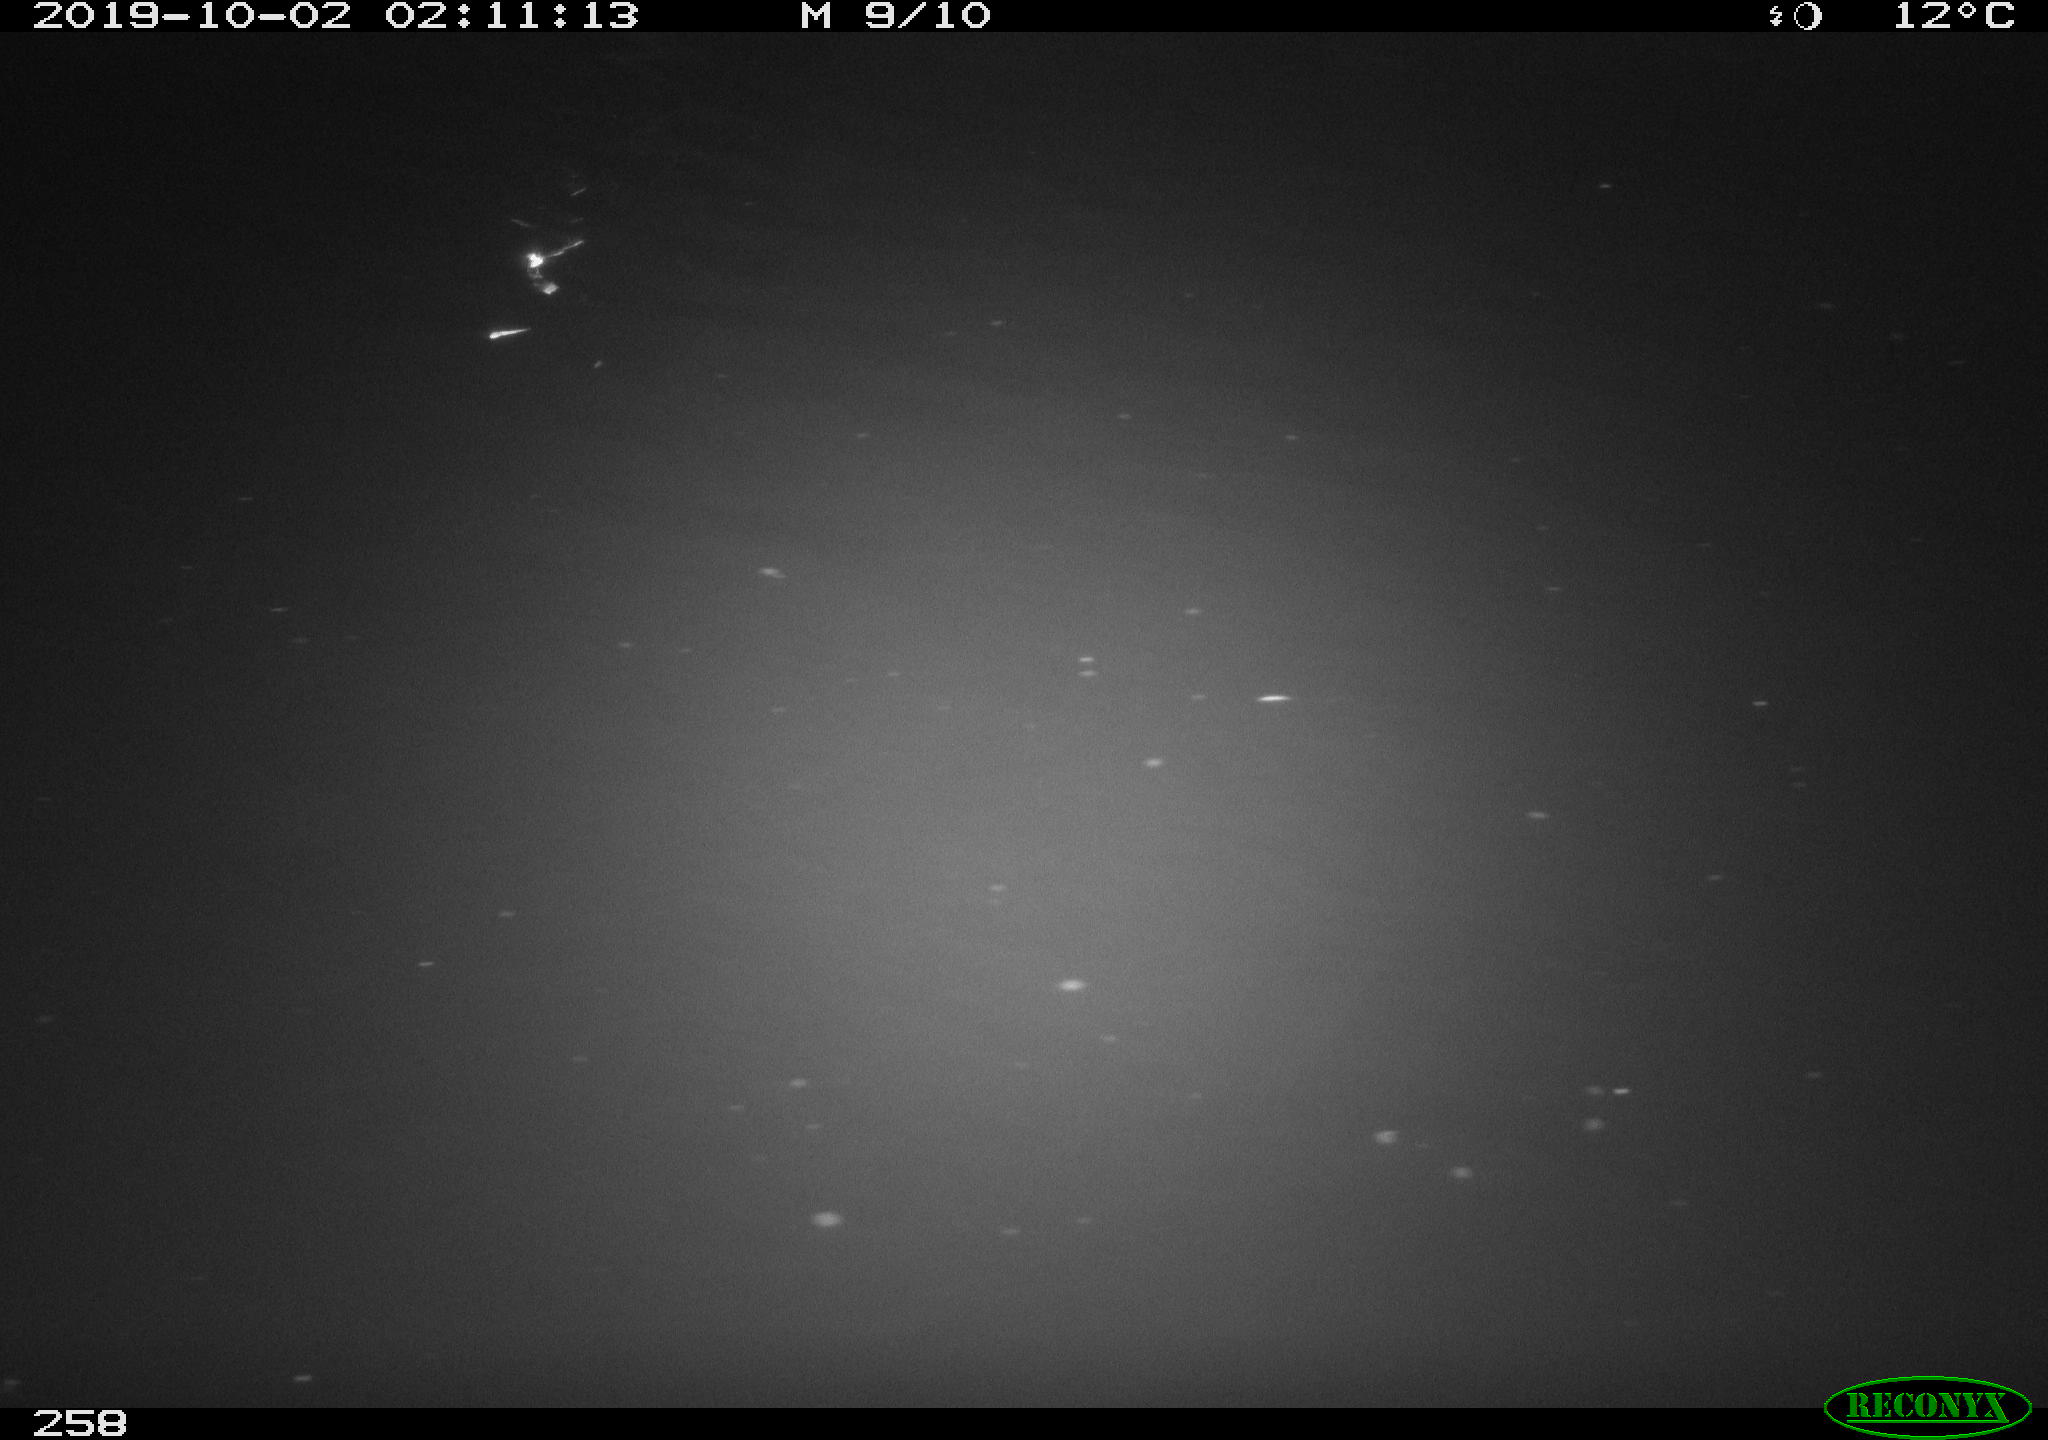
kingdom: Animalia
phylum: Chordata
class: Aves
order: Anseriformes
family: Anatidae
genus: Anas
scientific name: Anas platyrhynchos
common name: Mallard
